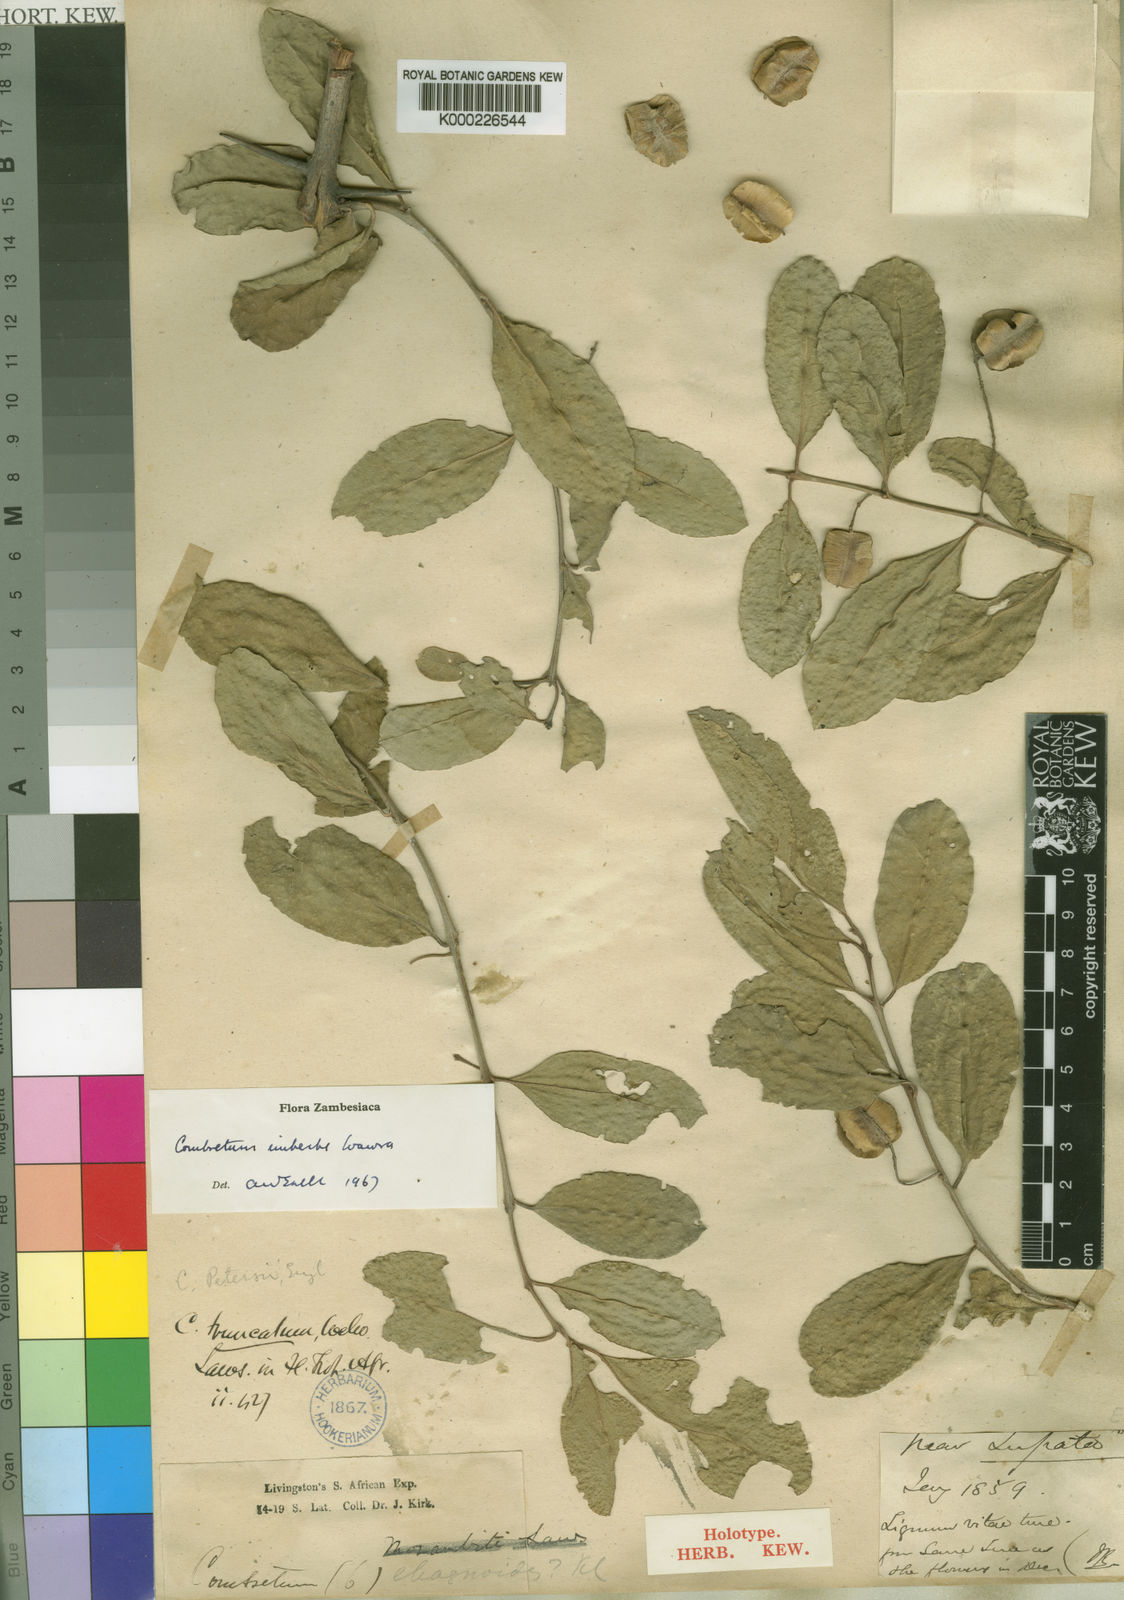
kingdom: Plantae
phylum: Tracheophyta
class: Magnoliopsida
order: Myrtales
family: Combretaceae
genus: Combretum
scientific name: Combretum imberbe
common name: Leadwood
